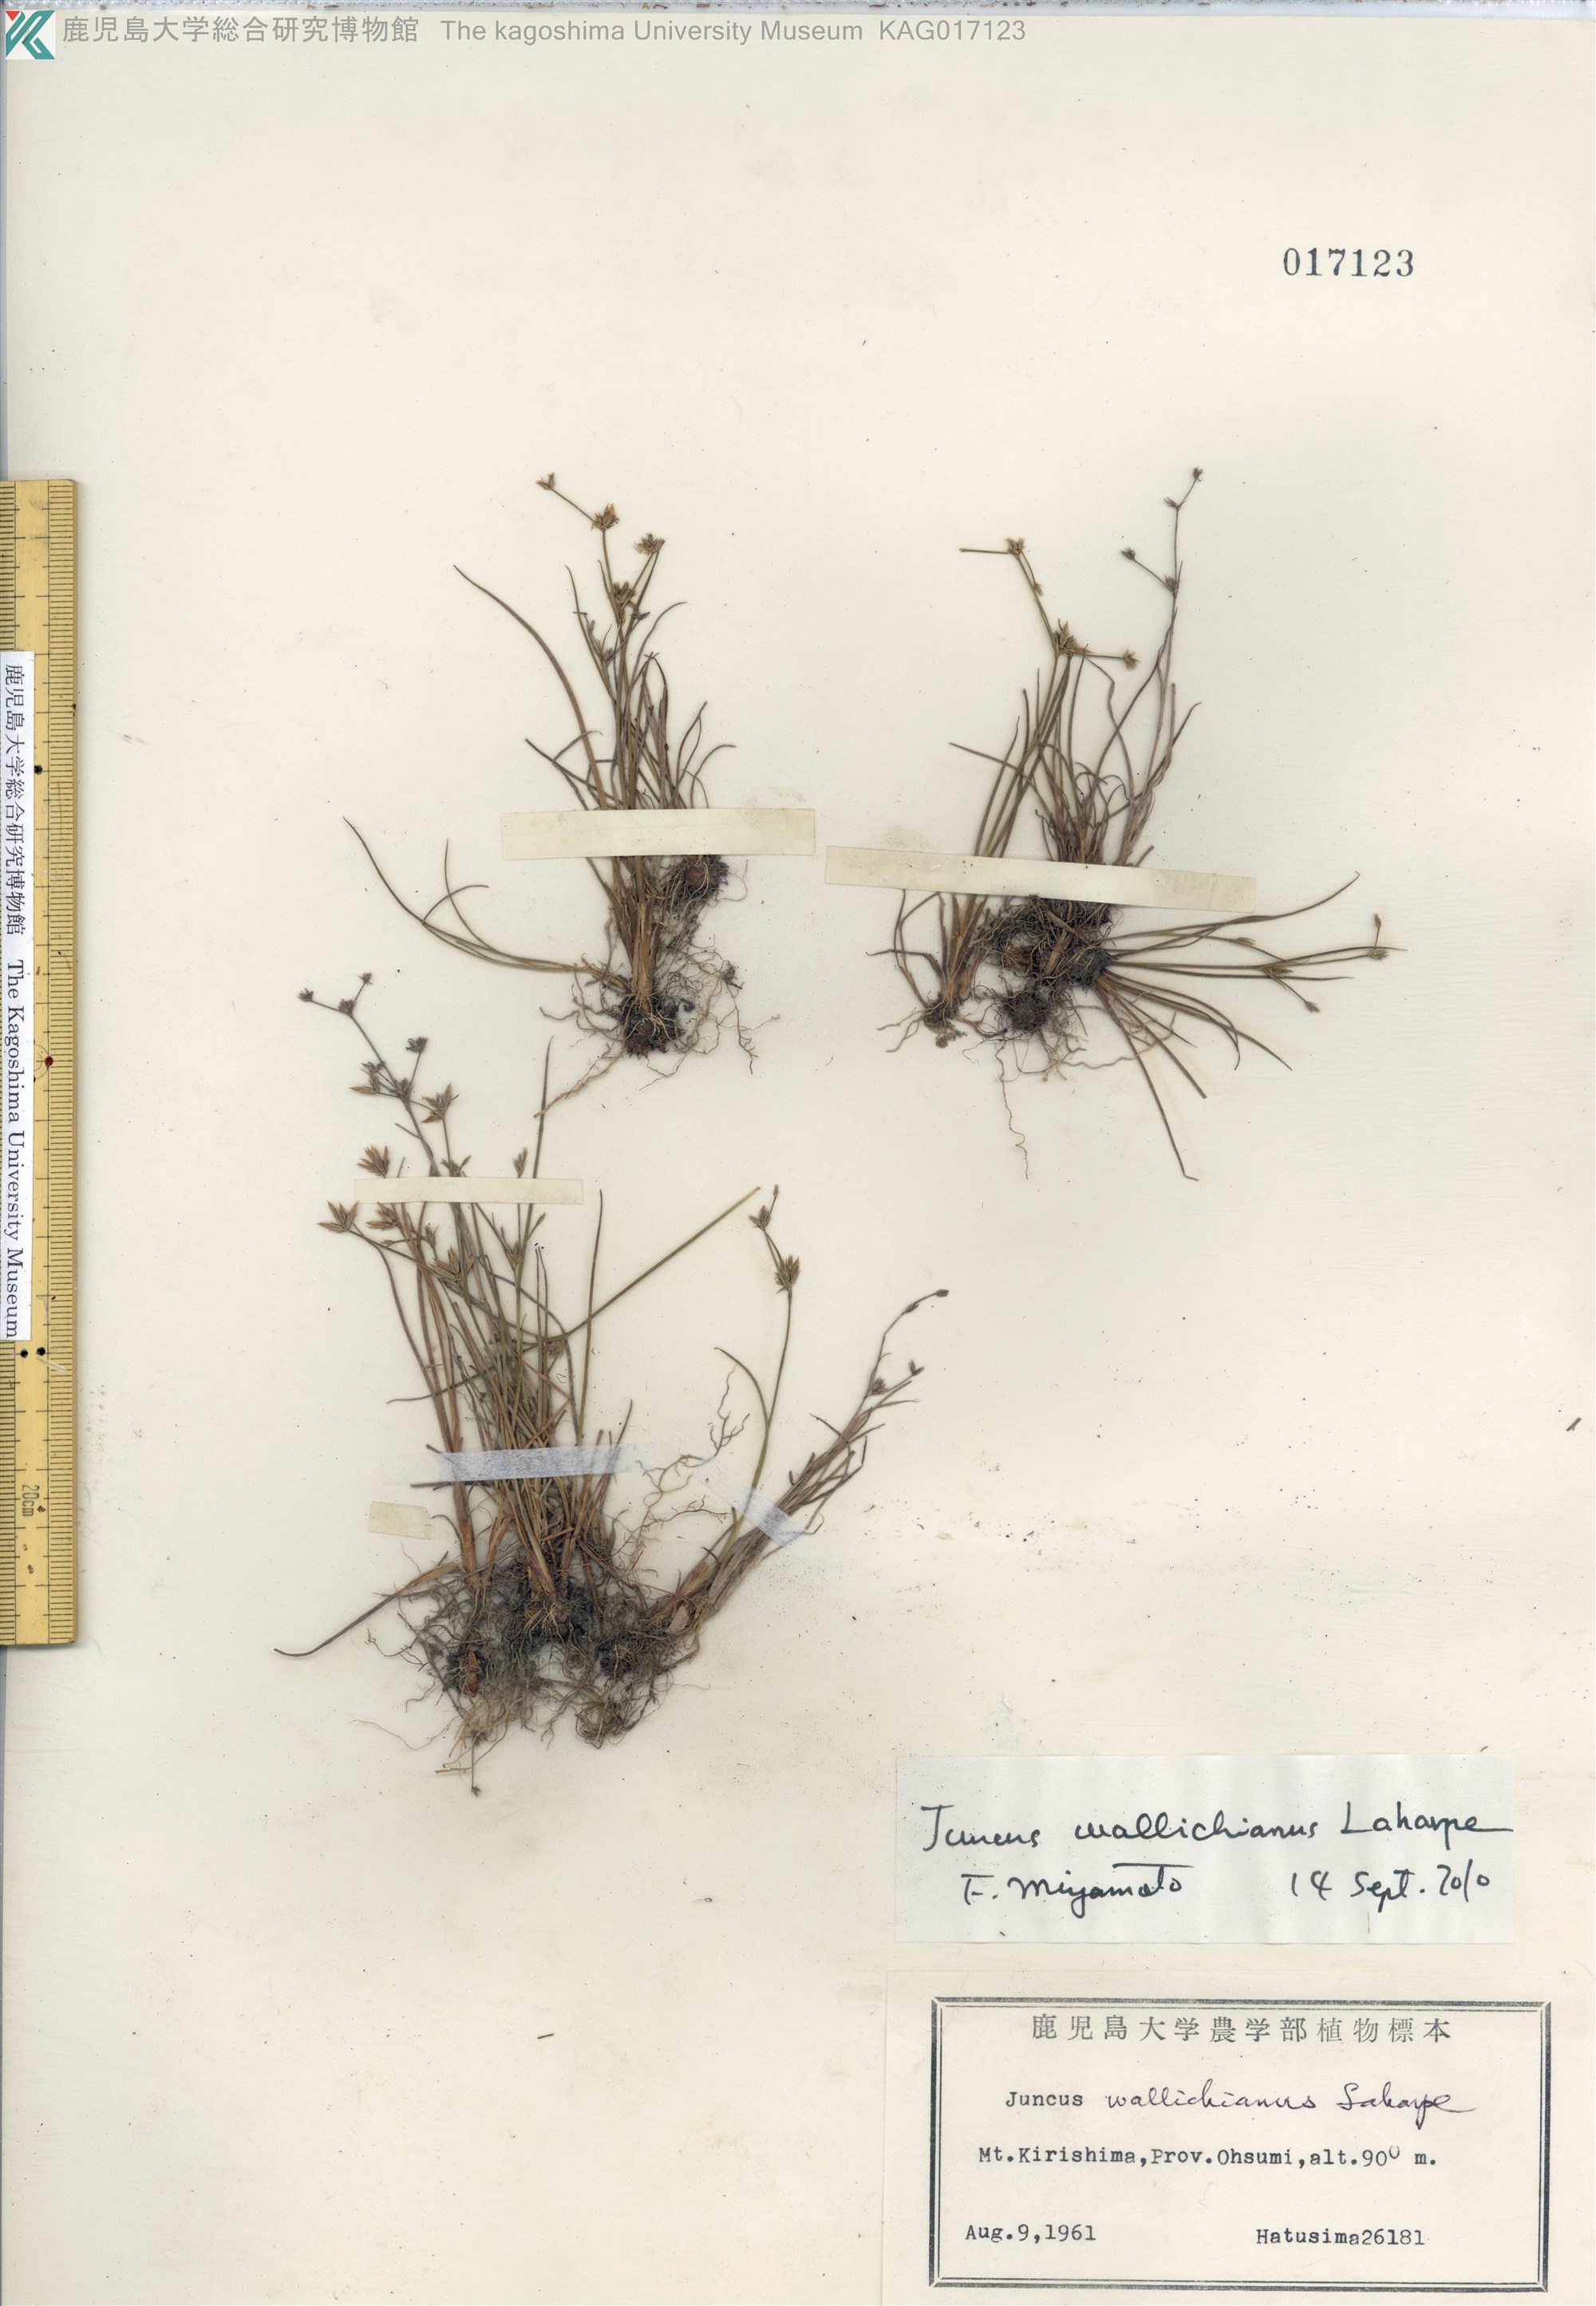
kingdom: Plantae
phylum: Tracheophyta
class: Liliopsida
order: Poales
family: Juncaceae
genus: Juncus
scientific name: Juncus wallichianus
